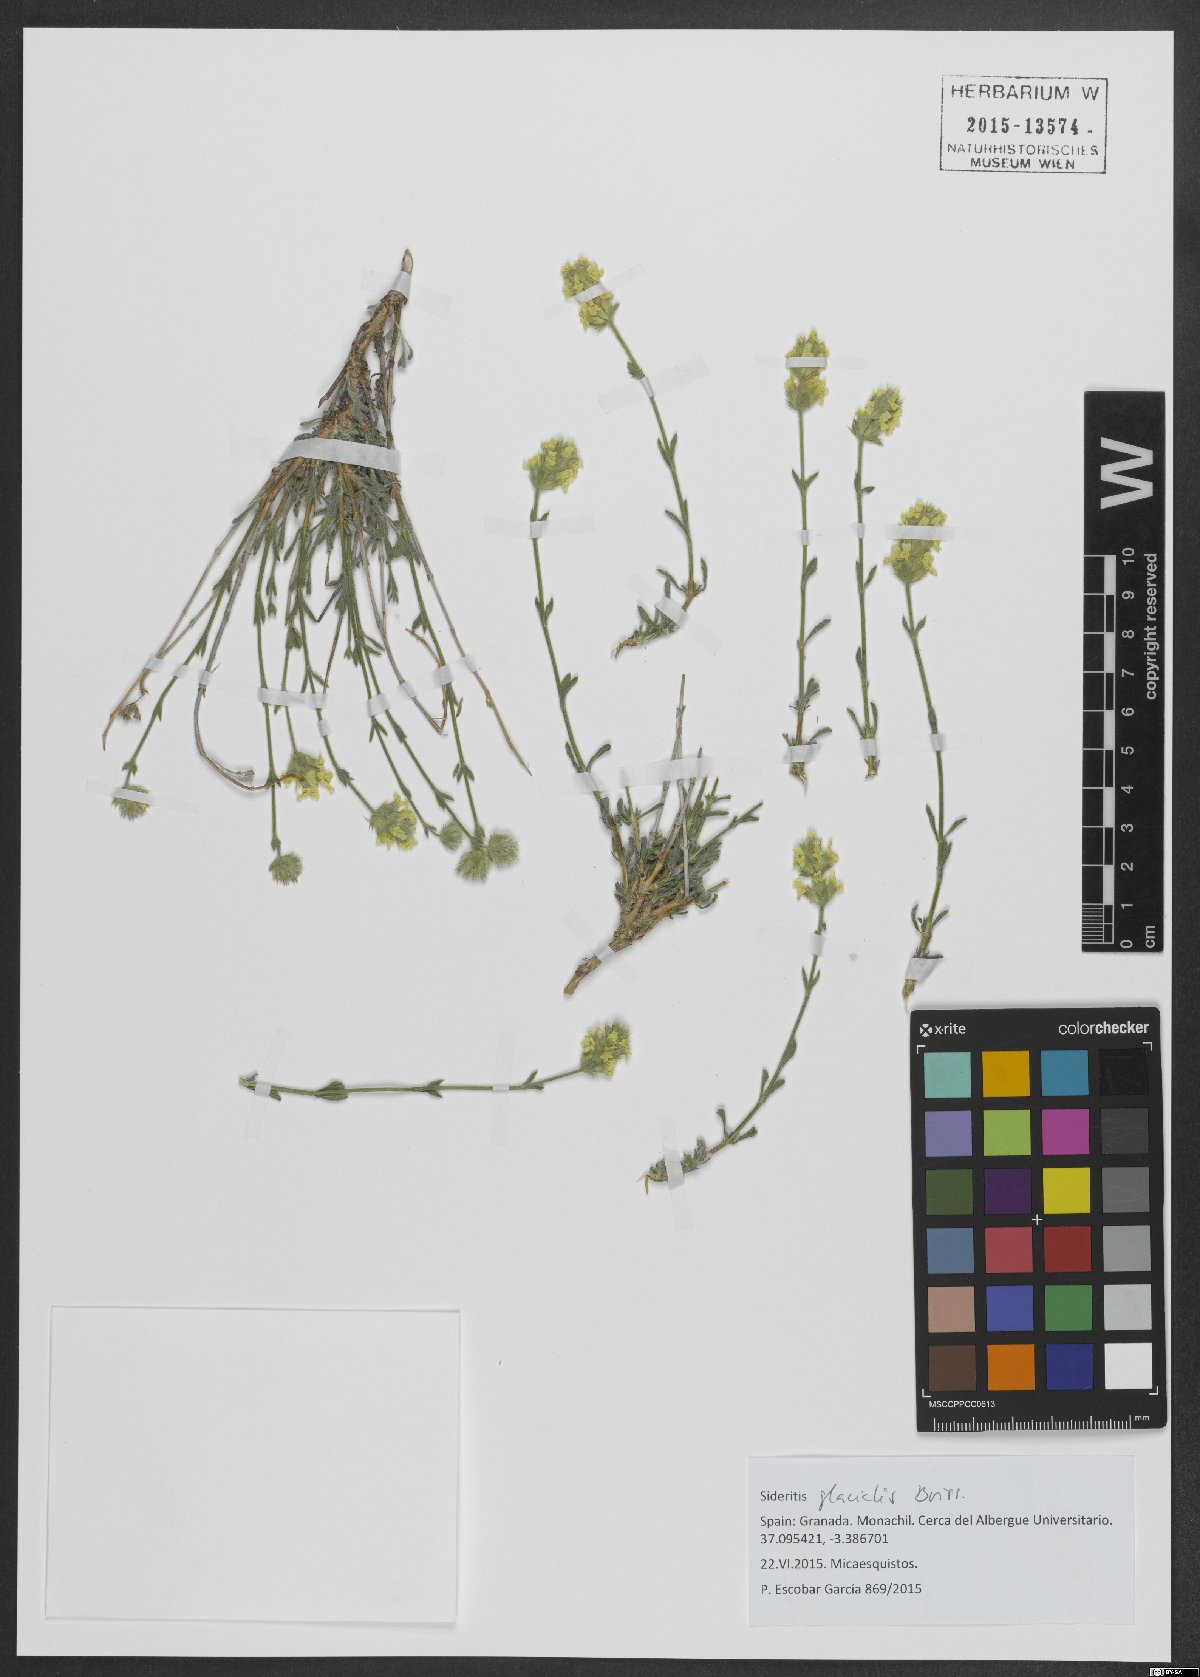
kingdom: Plantae
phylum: Tracheophyta
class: Magnoliopsida
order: Lamiales
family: Lamiaceae
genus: Sideritis
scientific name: Sideritis glacialis
